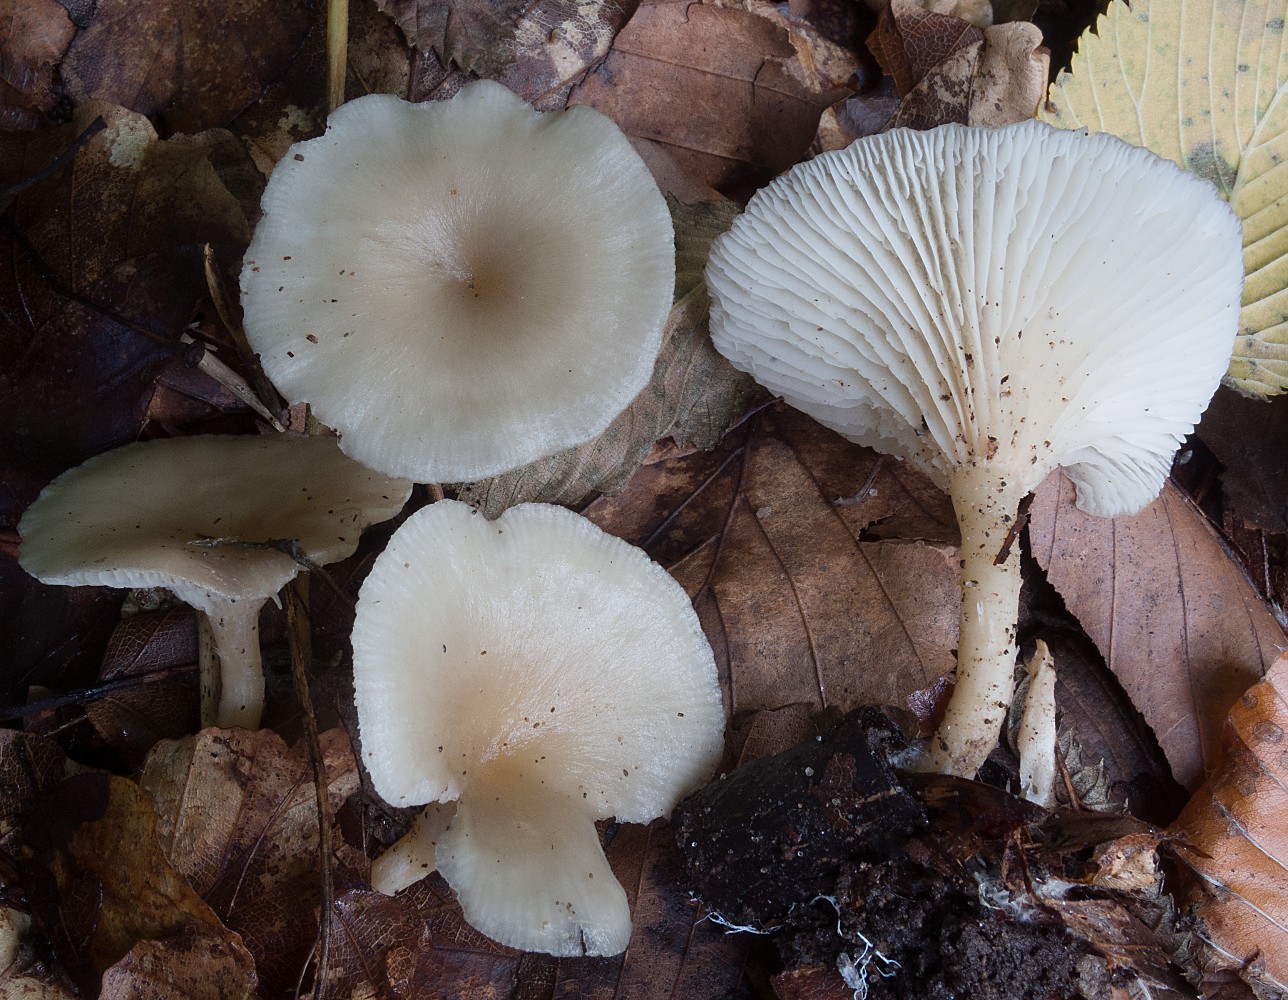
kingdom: Fungi
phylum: Basidiomycota
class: Agaricomycetes
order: Agaricales
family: Tricholomataceae
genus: Clitocybe
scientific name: Clitocybe phaeophthalma
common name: stinkende tragthat
